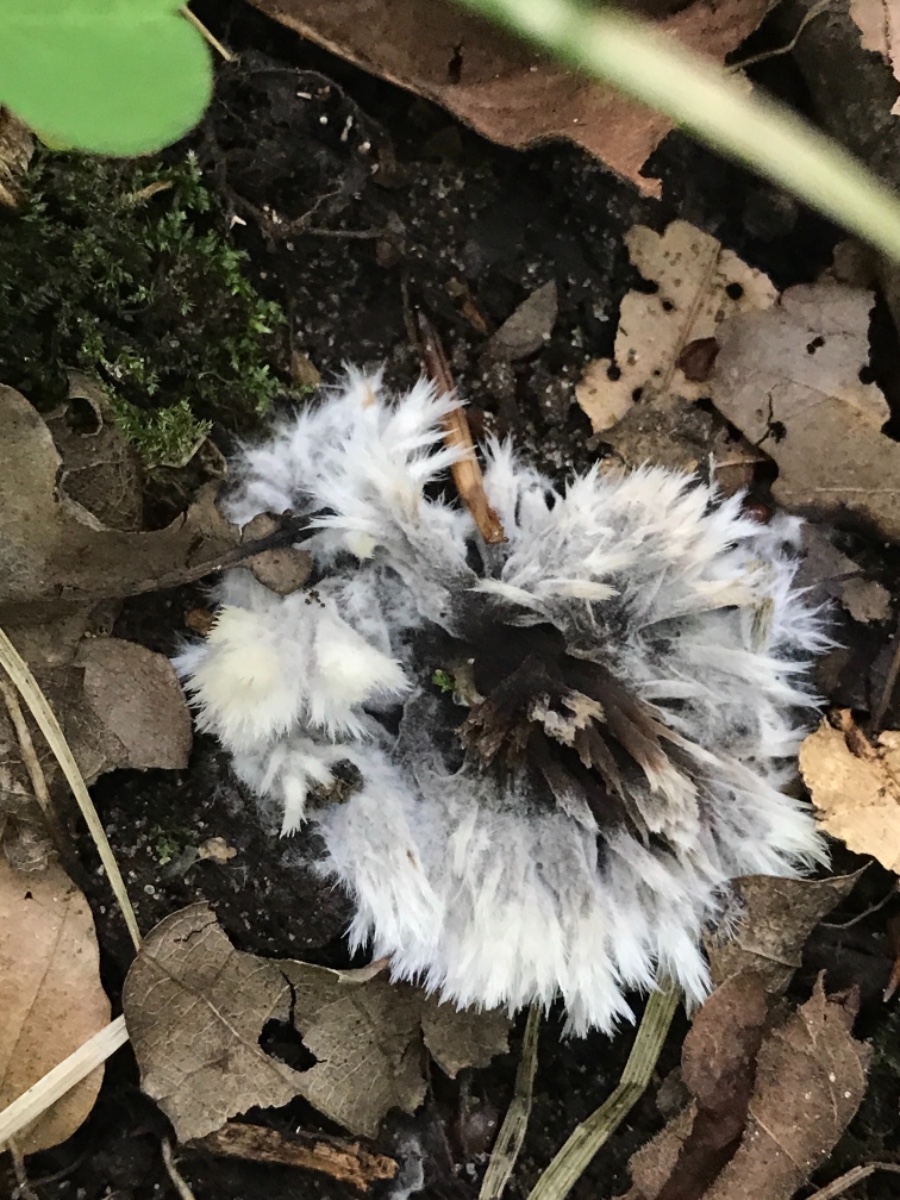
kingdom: Fungi
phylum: Basidiomycota
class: Agaricomycetes
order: Thelephorales
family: Thelephoraceae
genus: Thelephora
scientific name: Thelephora penicillata
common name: fladtrådt frynsesvamp
